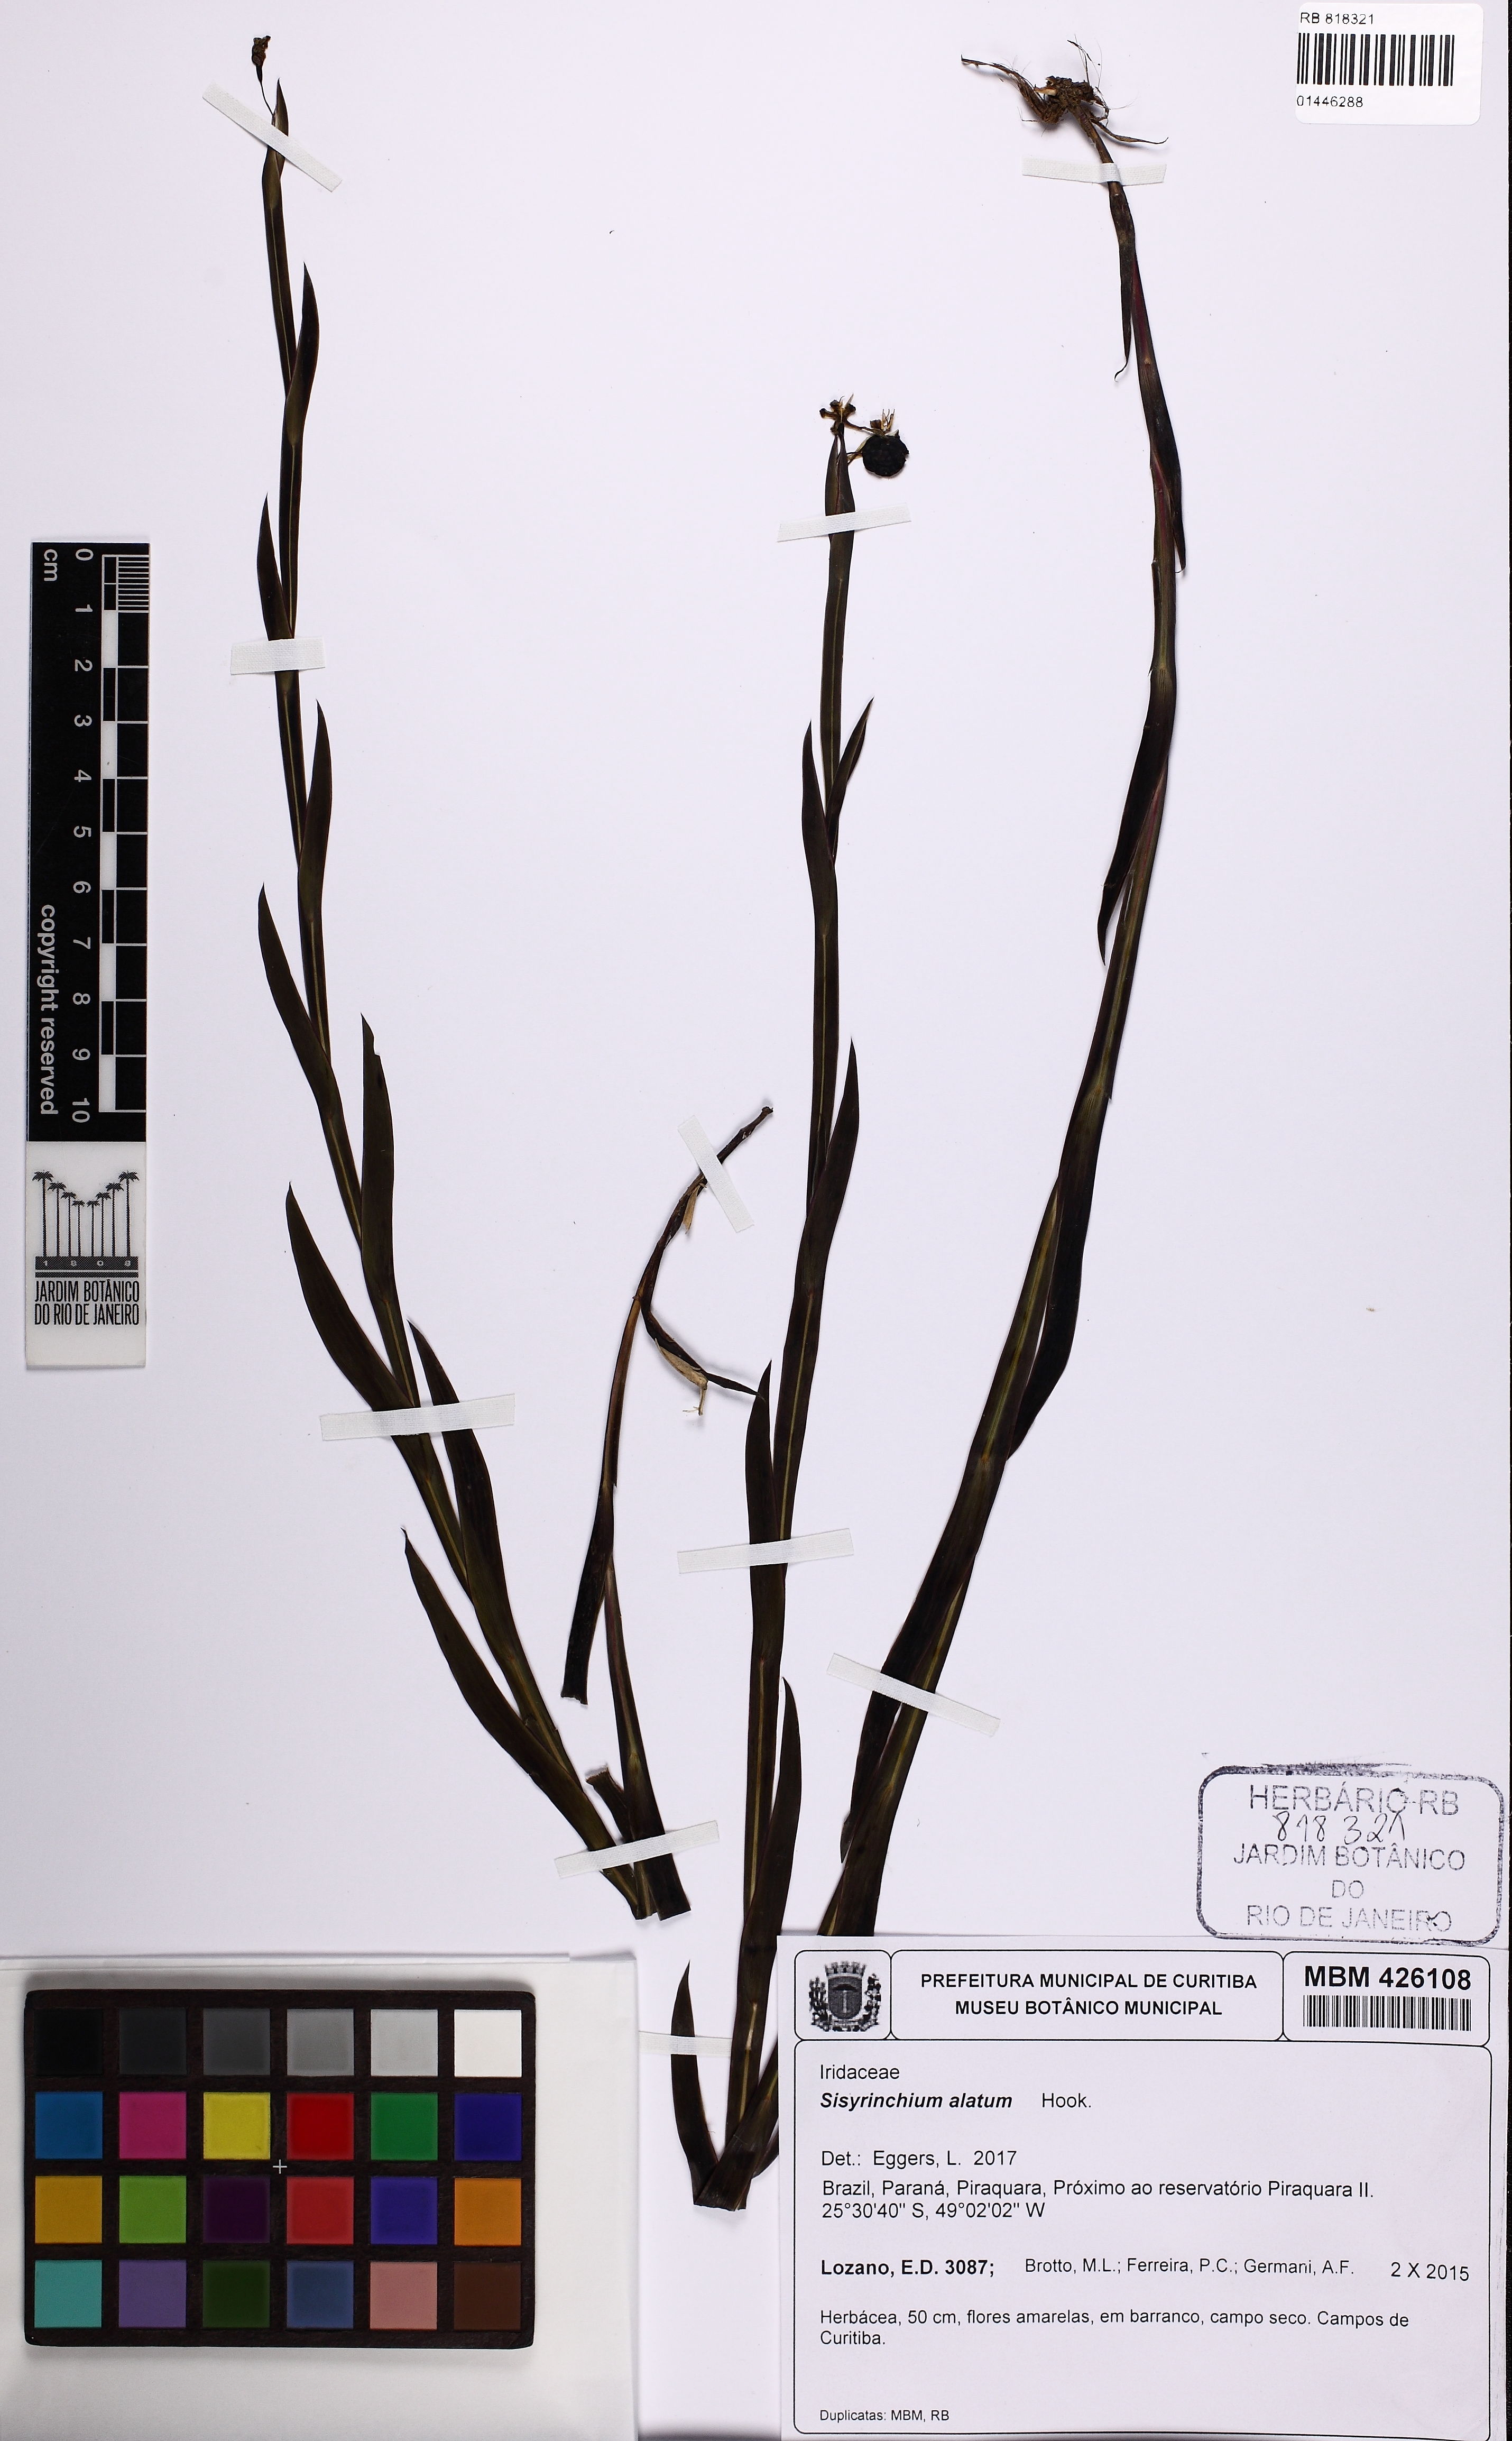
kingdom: Plantae
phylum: Tracheophyta
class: Liliopsida
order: Asparagales
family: Iridaceae
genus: Sisyrinchium
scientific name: Sisyrinchium vaginatum
